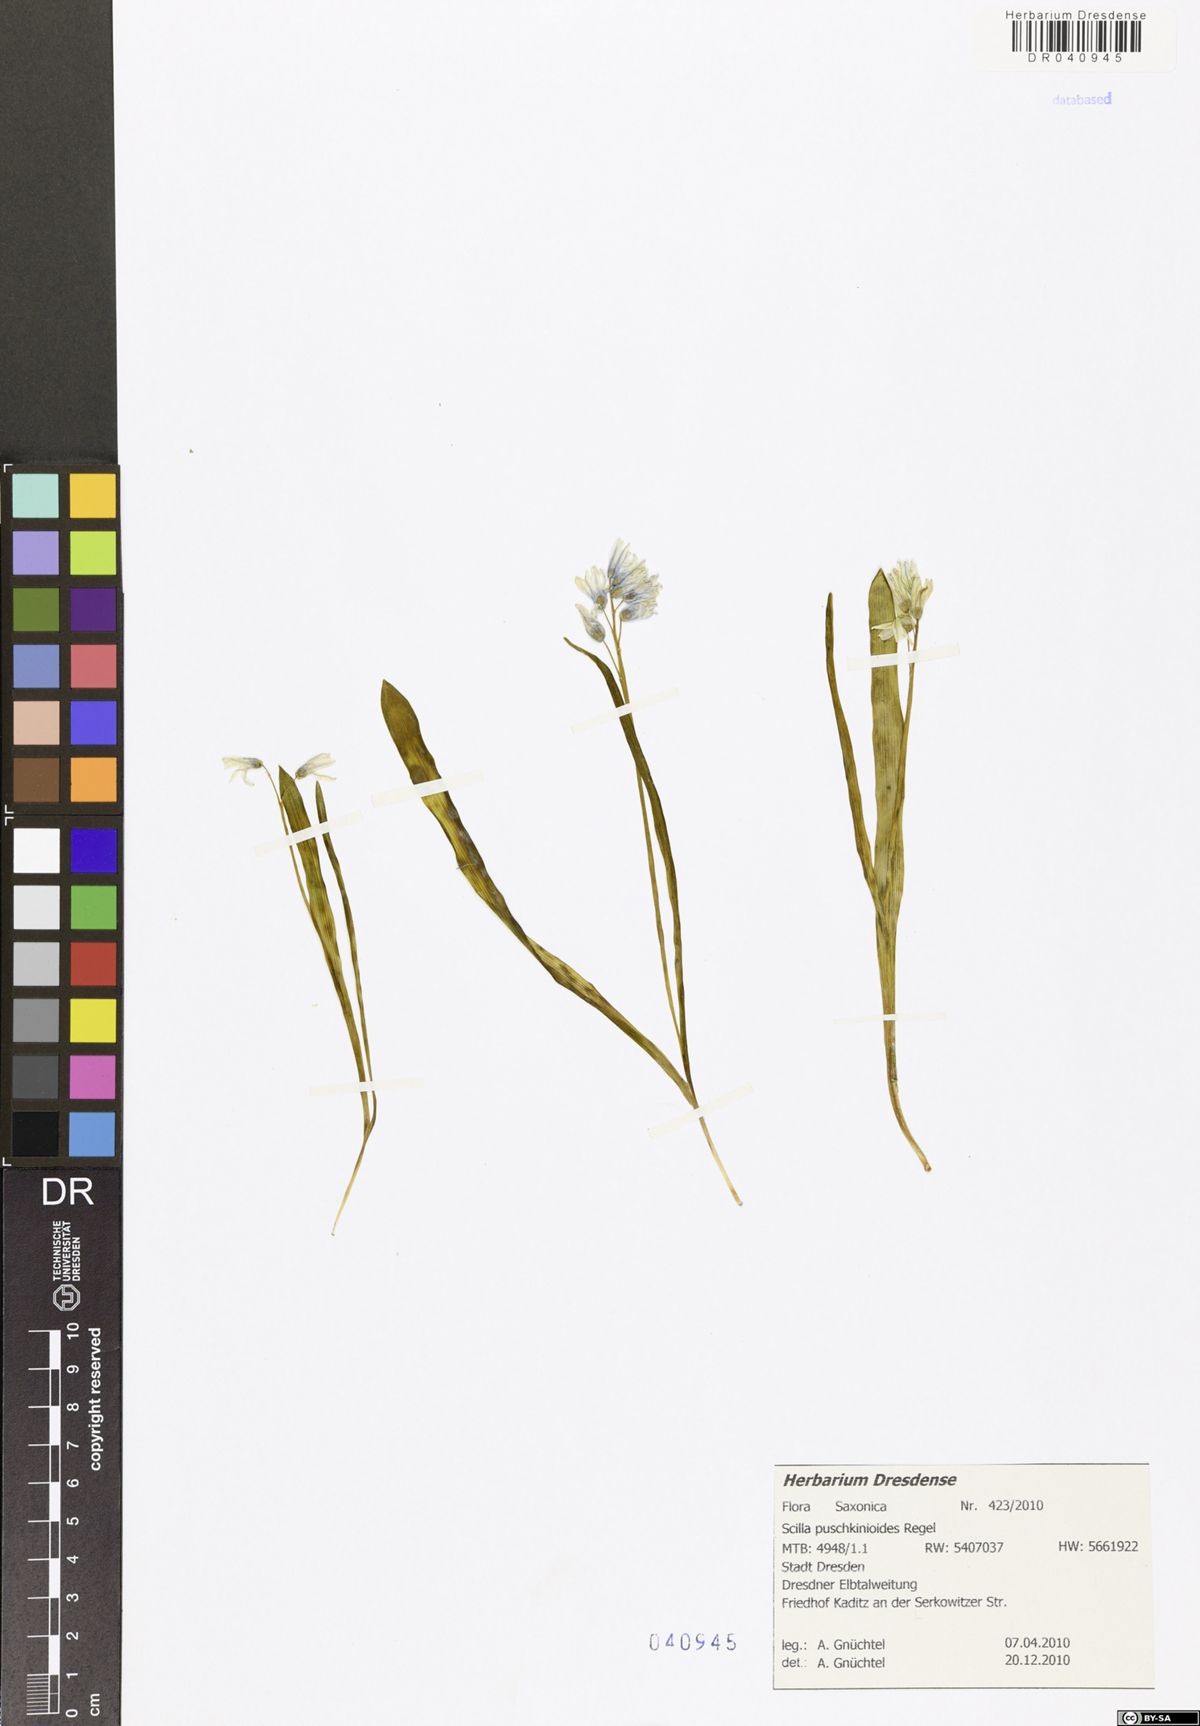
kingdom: Plantae
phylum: Tracheophyta
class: Liliopsida
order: Asparagales
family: Asparagaceae
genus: Fessia
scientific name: Fessia puschkinioides
